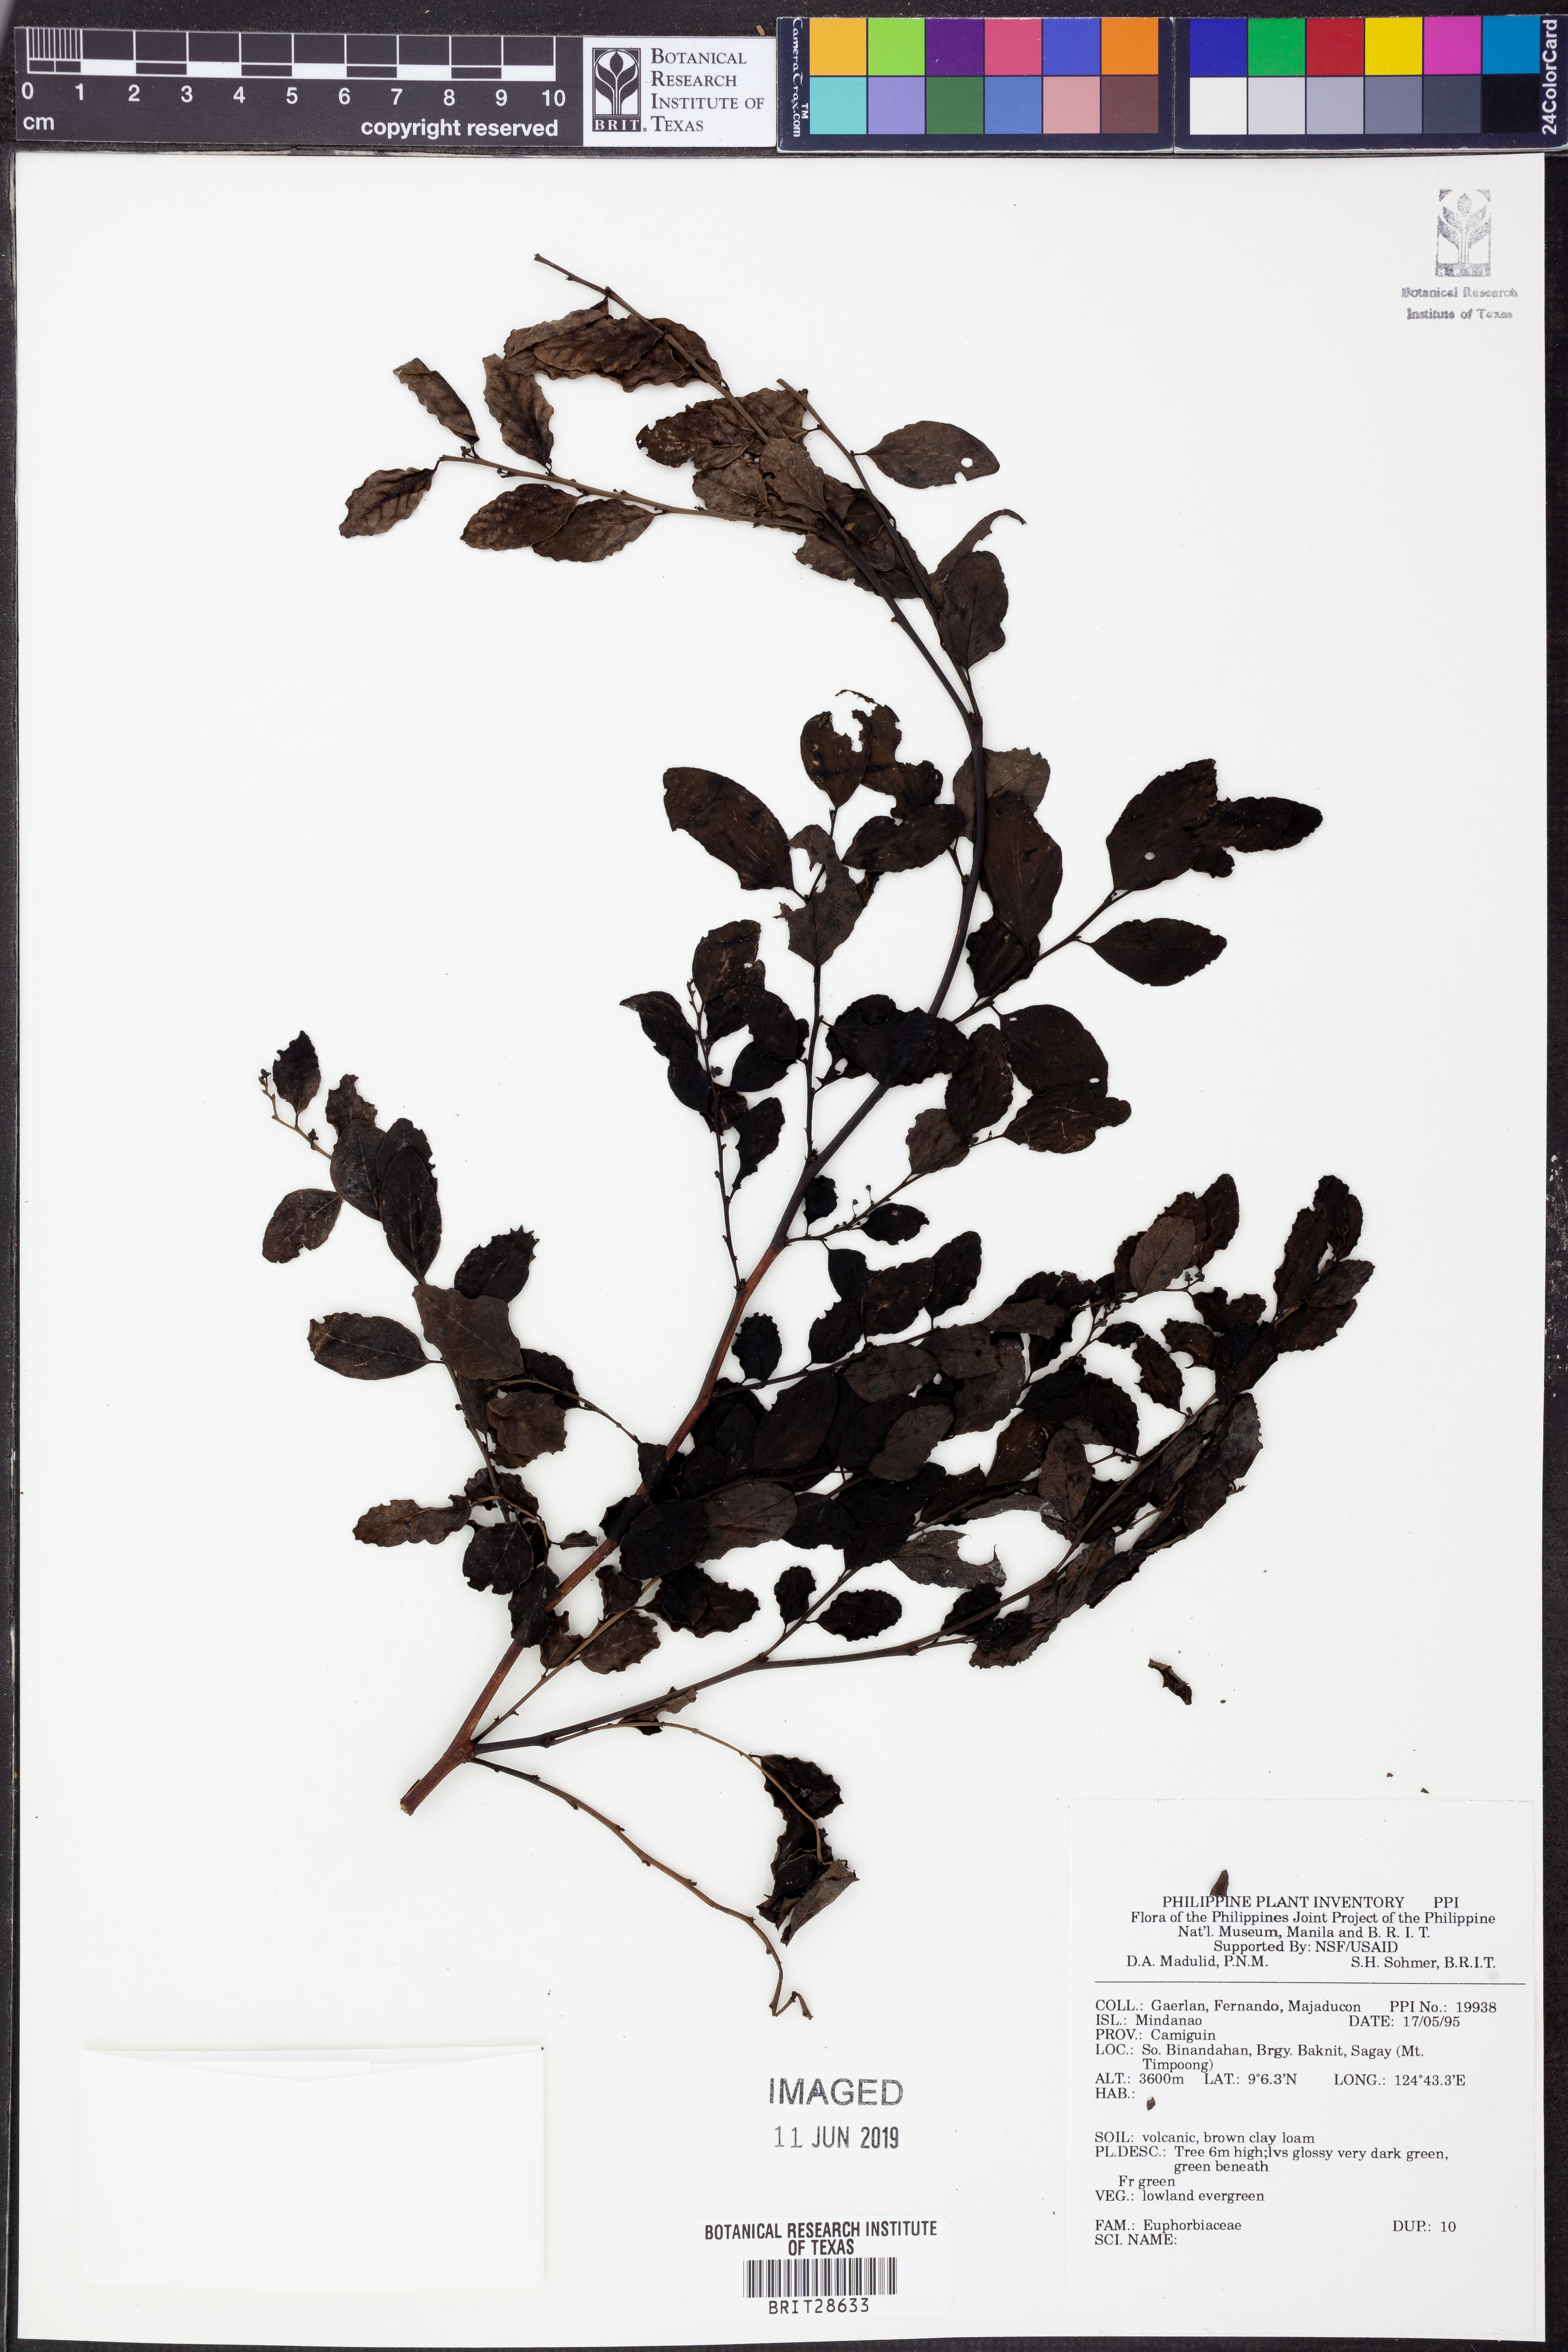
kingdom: Plantae
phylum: Tracheophyta
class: Magnoliopsida
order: Malpighiales
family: Euphorbiaceae
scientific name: Euphorbiaceae
